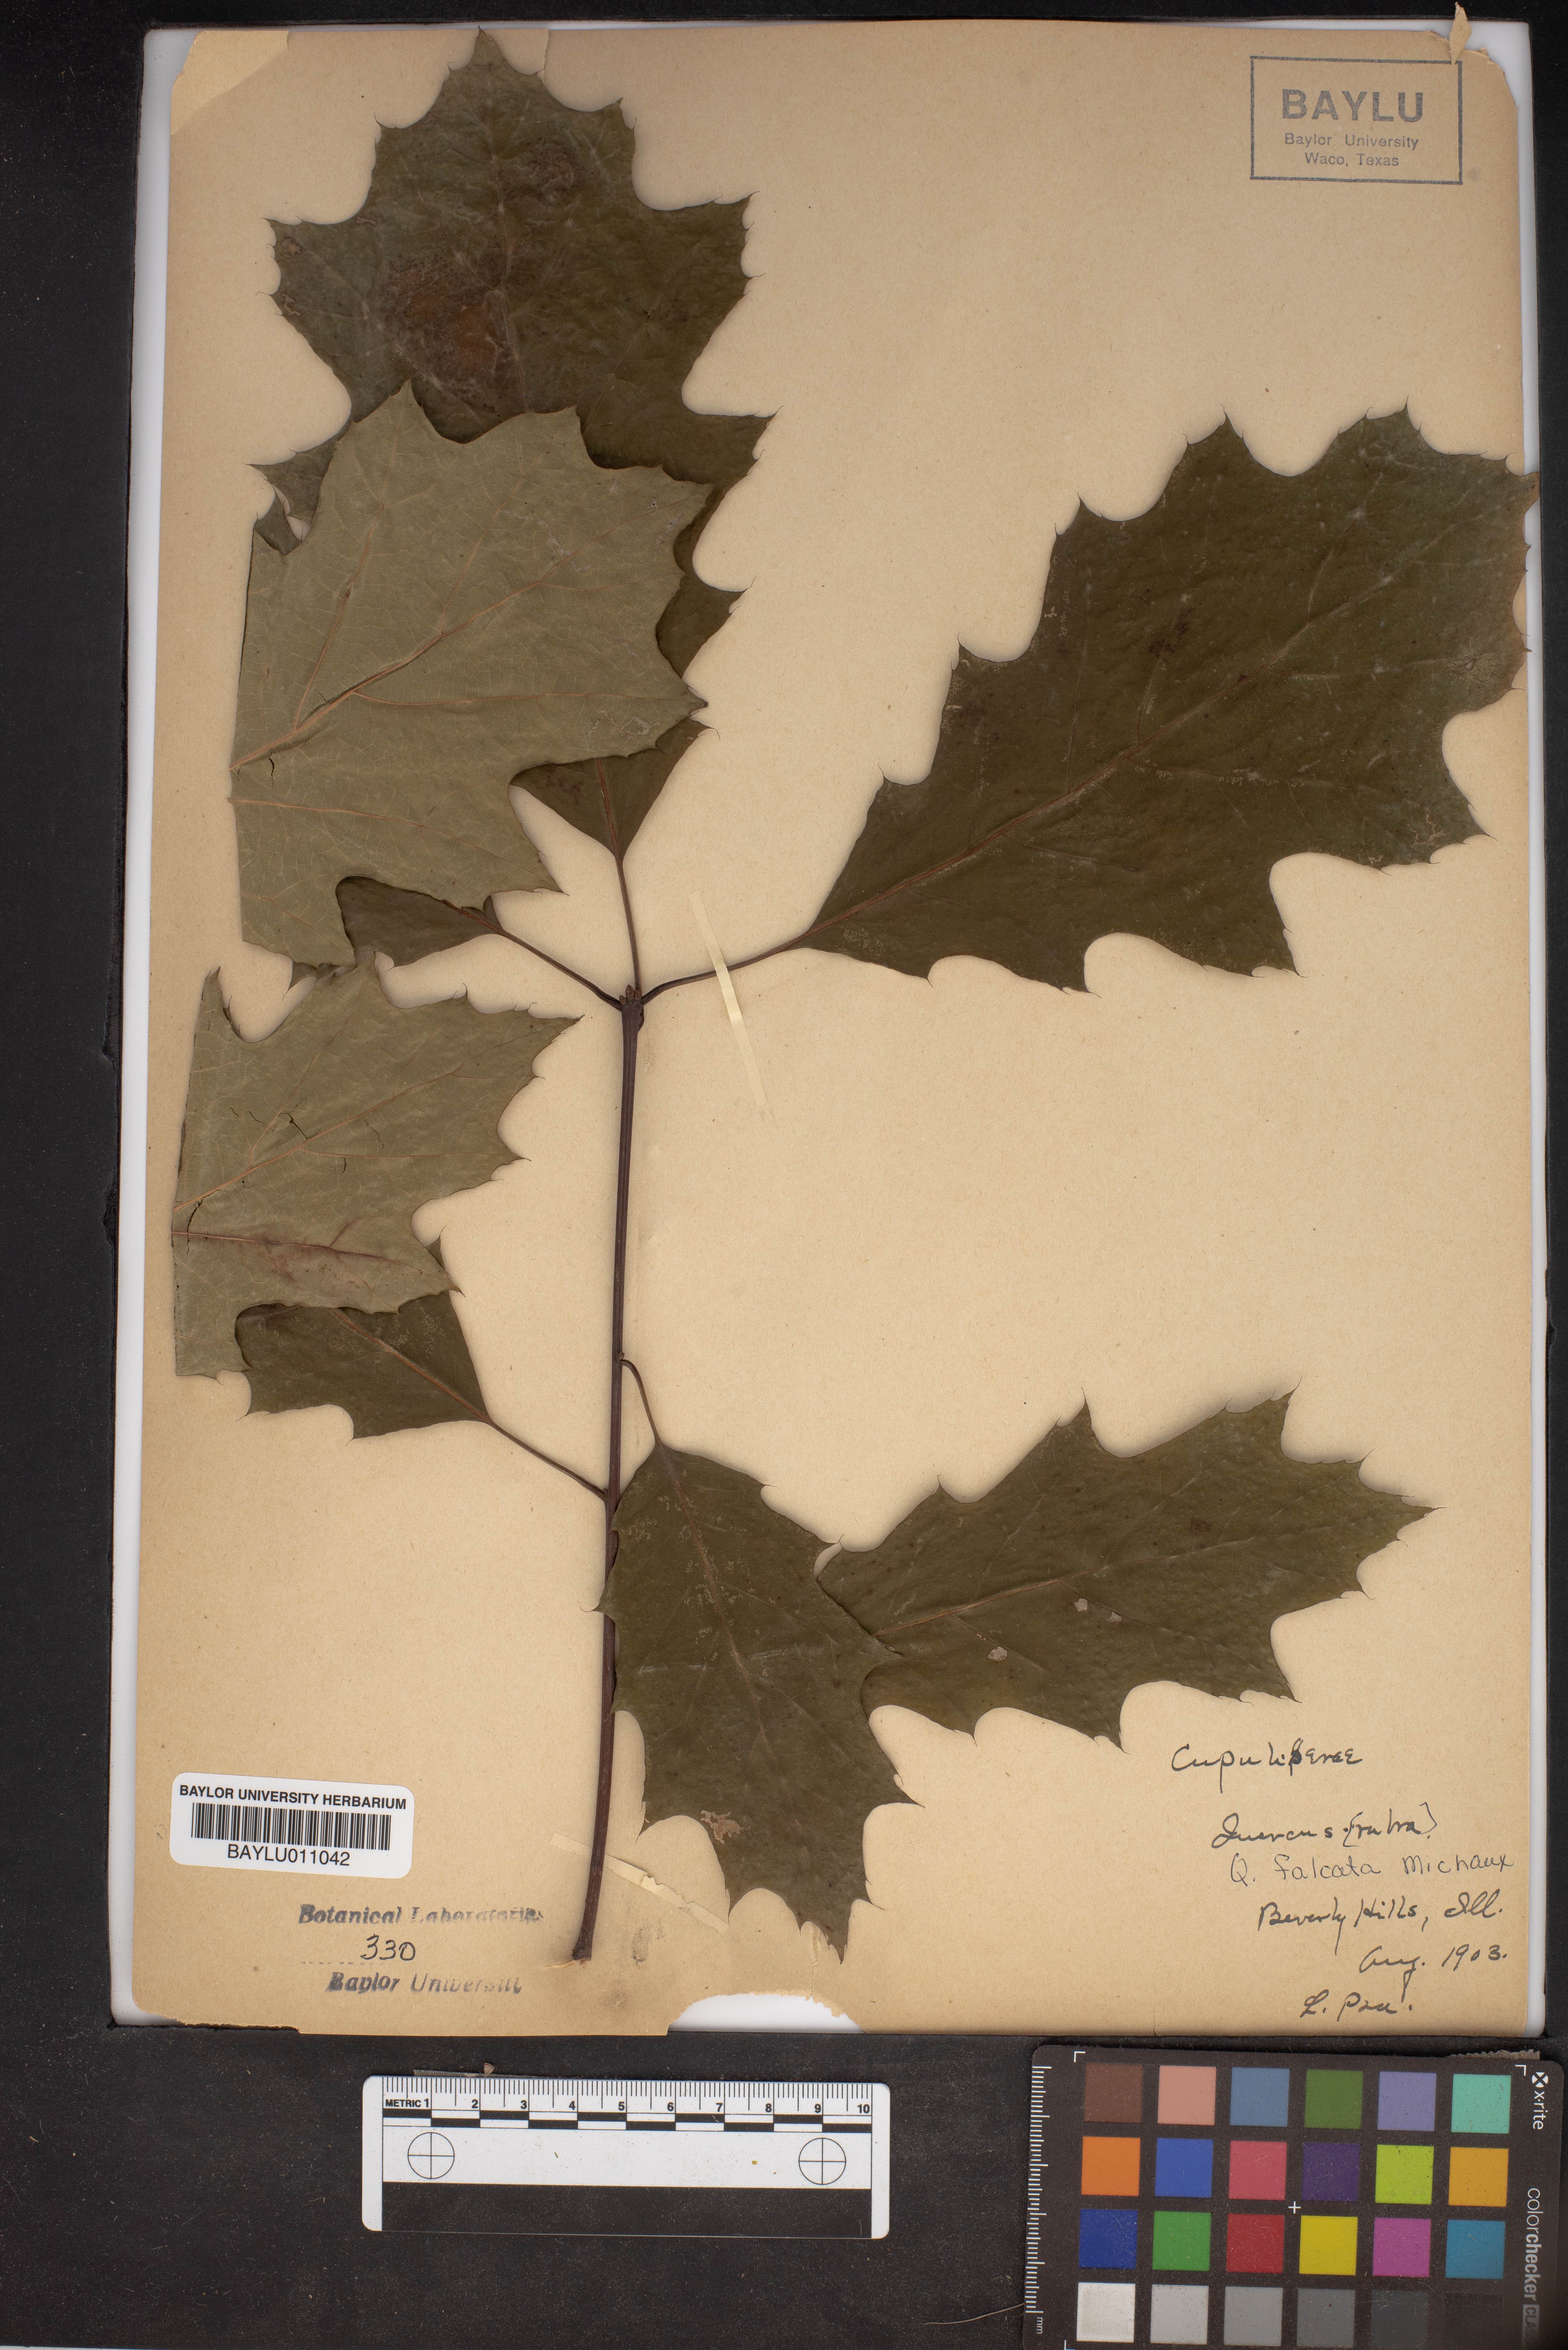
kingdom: Plantae
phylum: Tracheophyta
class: Magnoliopsida
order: Fagales
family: Fagaceae
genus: Quercus
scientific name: Quercus falcata
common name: Southern red oak
